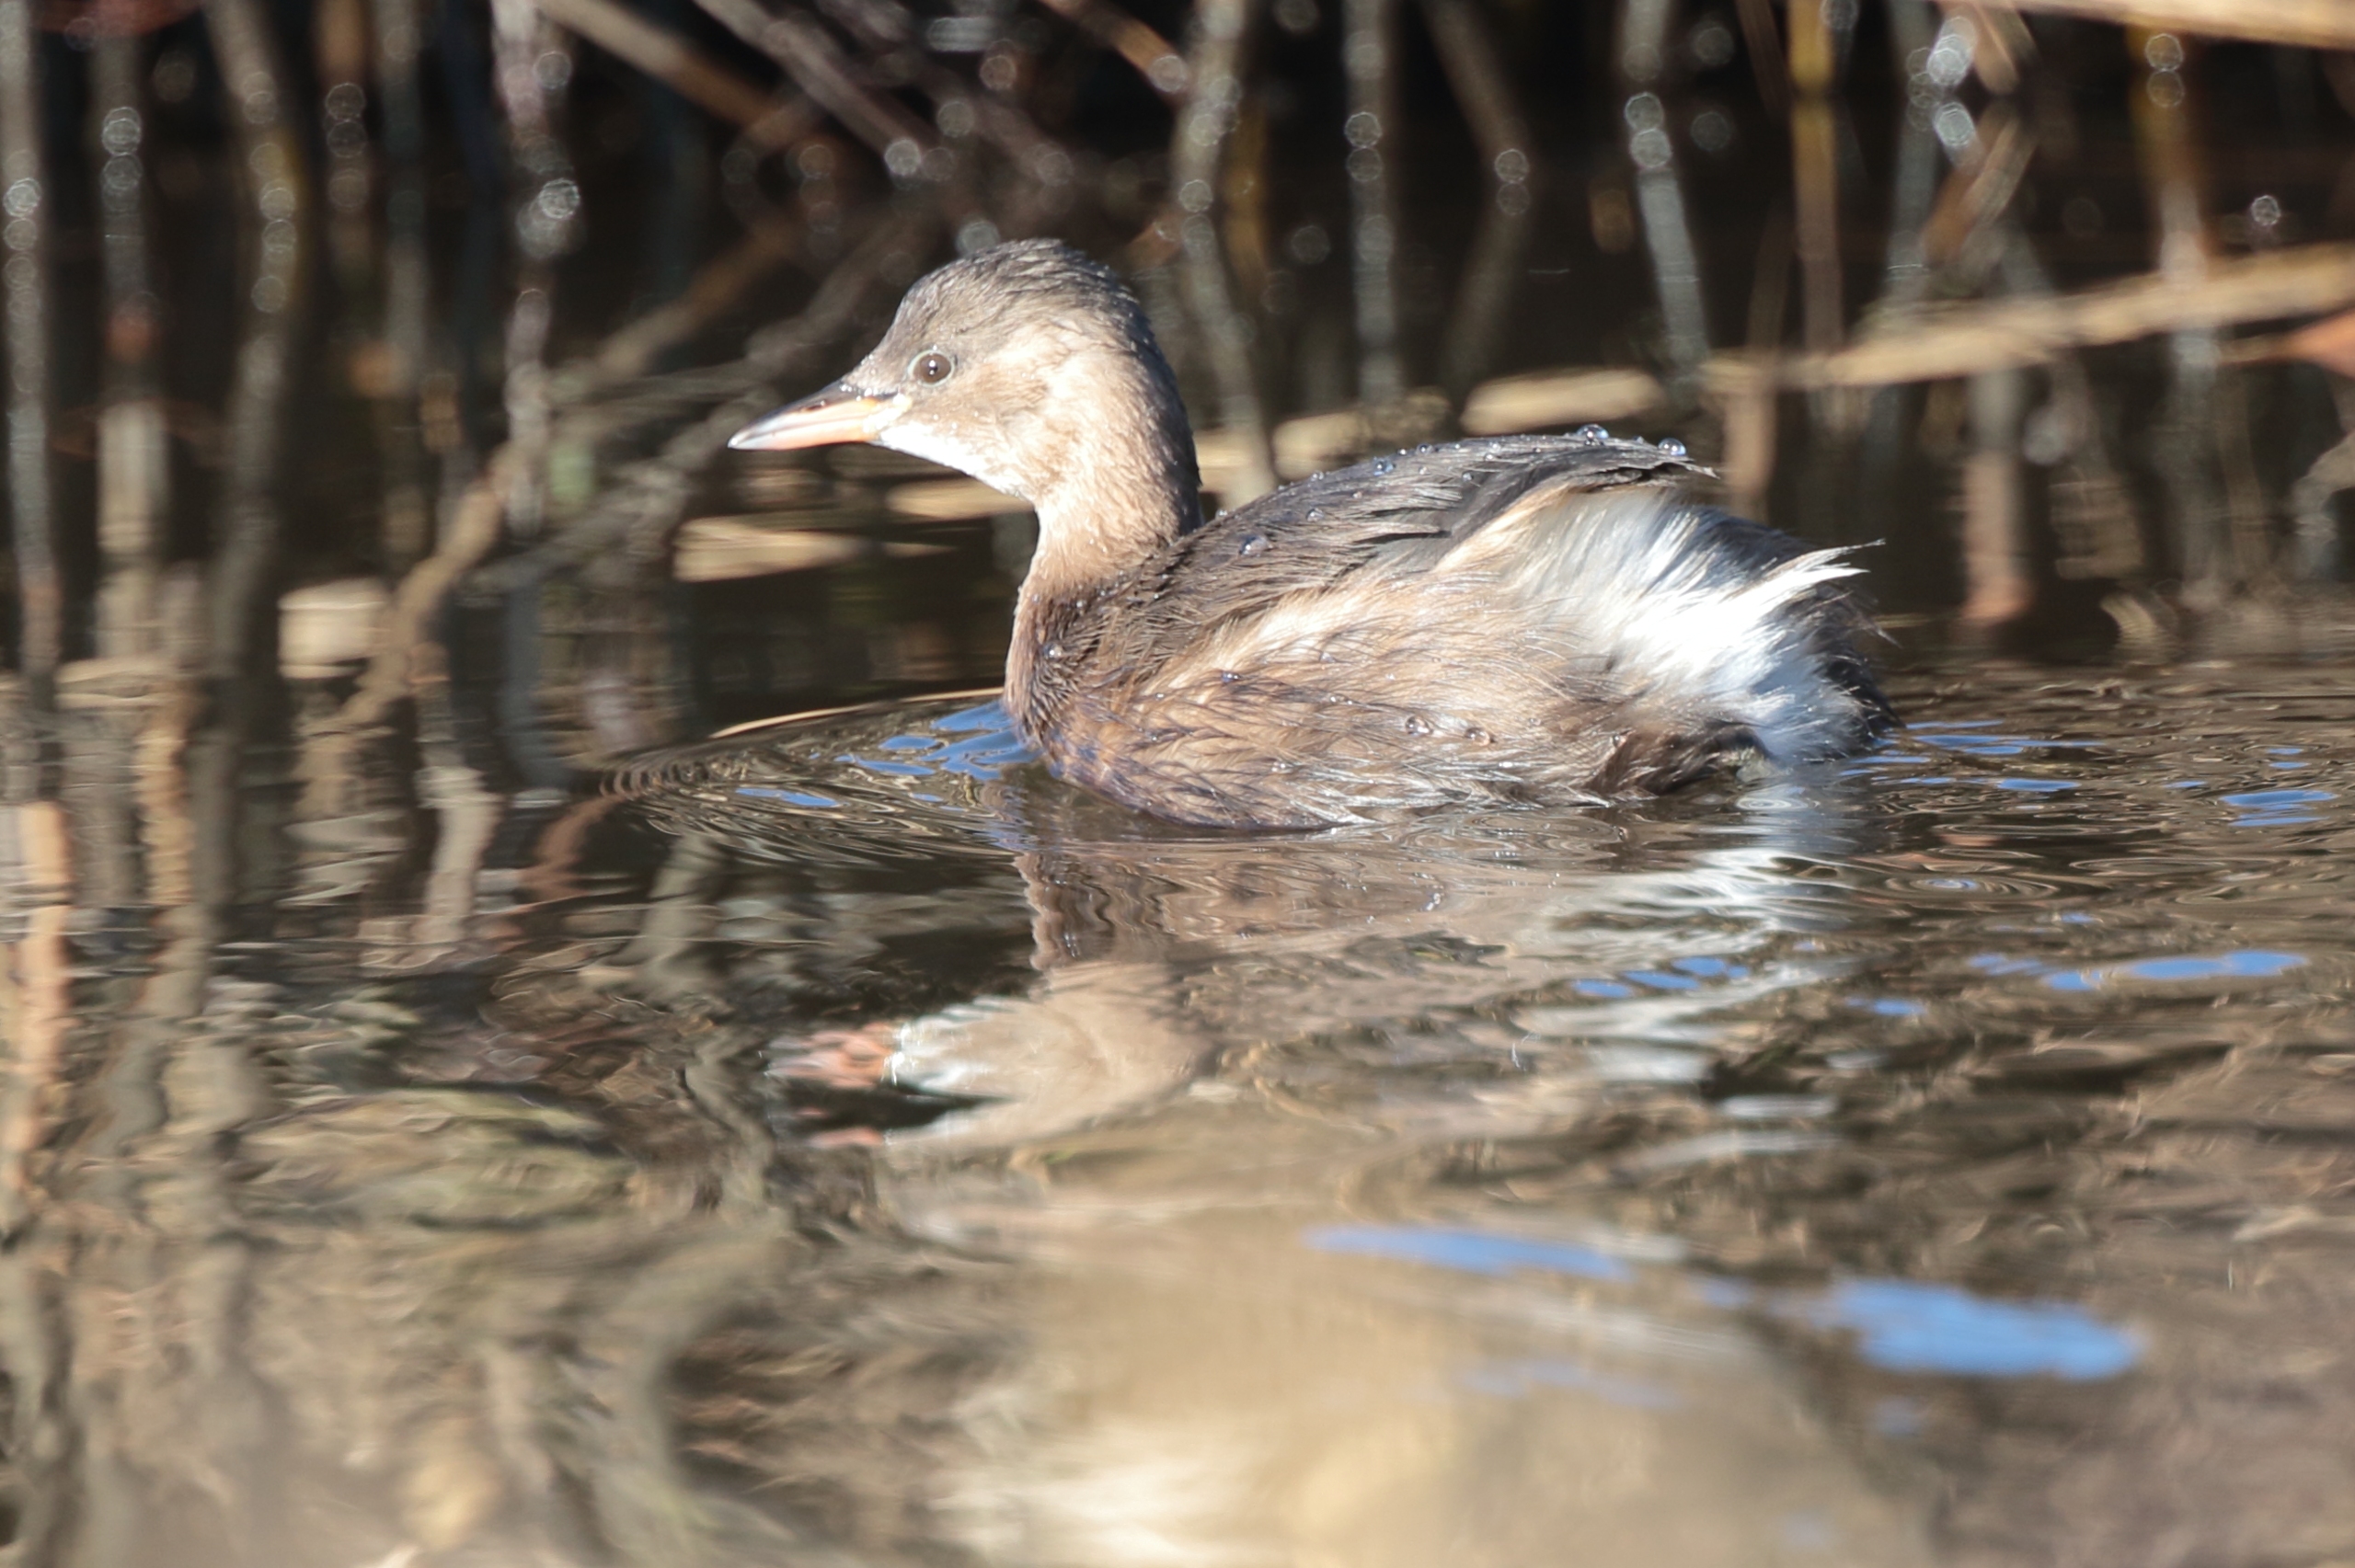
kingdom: Animalia
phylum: Chordata
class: Aves
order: Podicipediformes
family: Podicipedidae
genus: Tachybaptus
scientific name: Tachybaptus ruficollis
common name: Lille lappedykker
